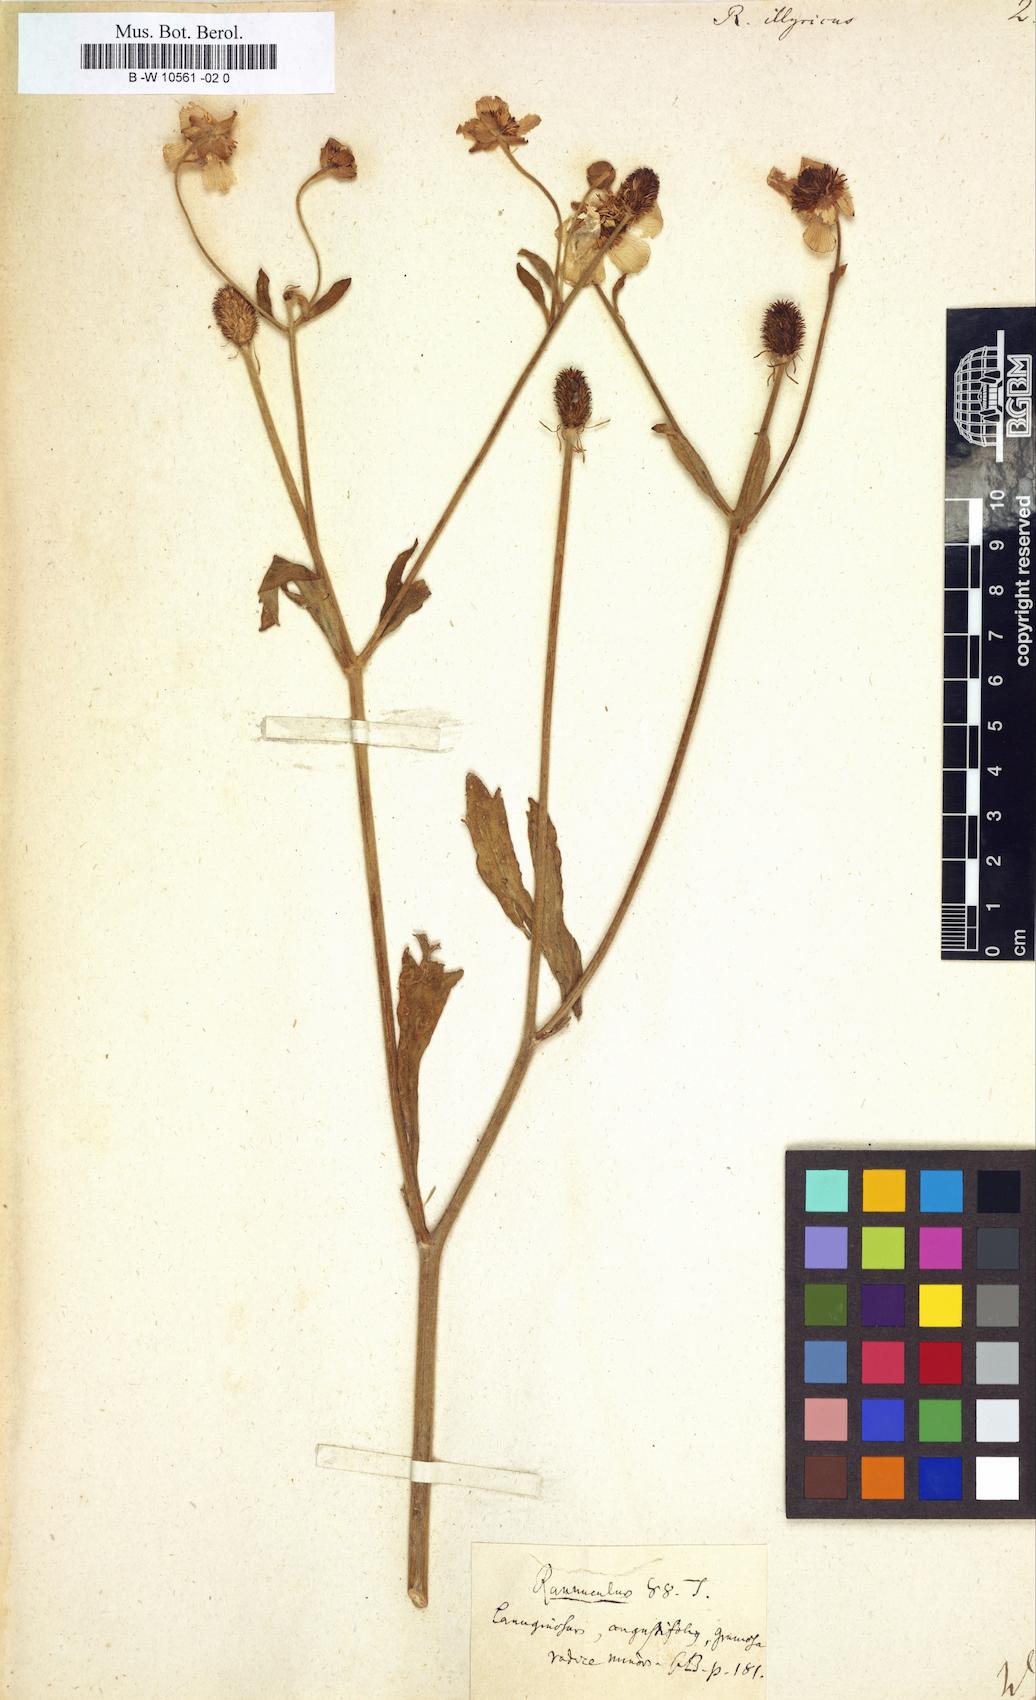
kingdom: Plantae
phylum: Tracheophyta
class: Magnoliopsida
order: Ranunculales
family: Ranunculaceae
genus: Ranunculus
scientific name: Ranunculus illyricus
